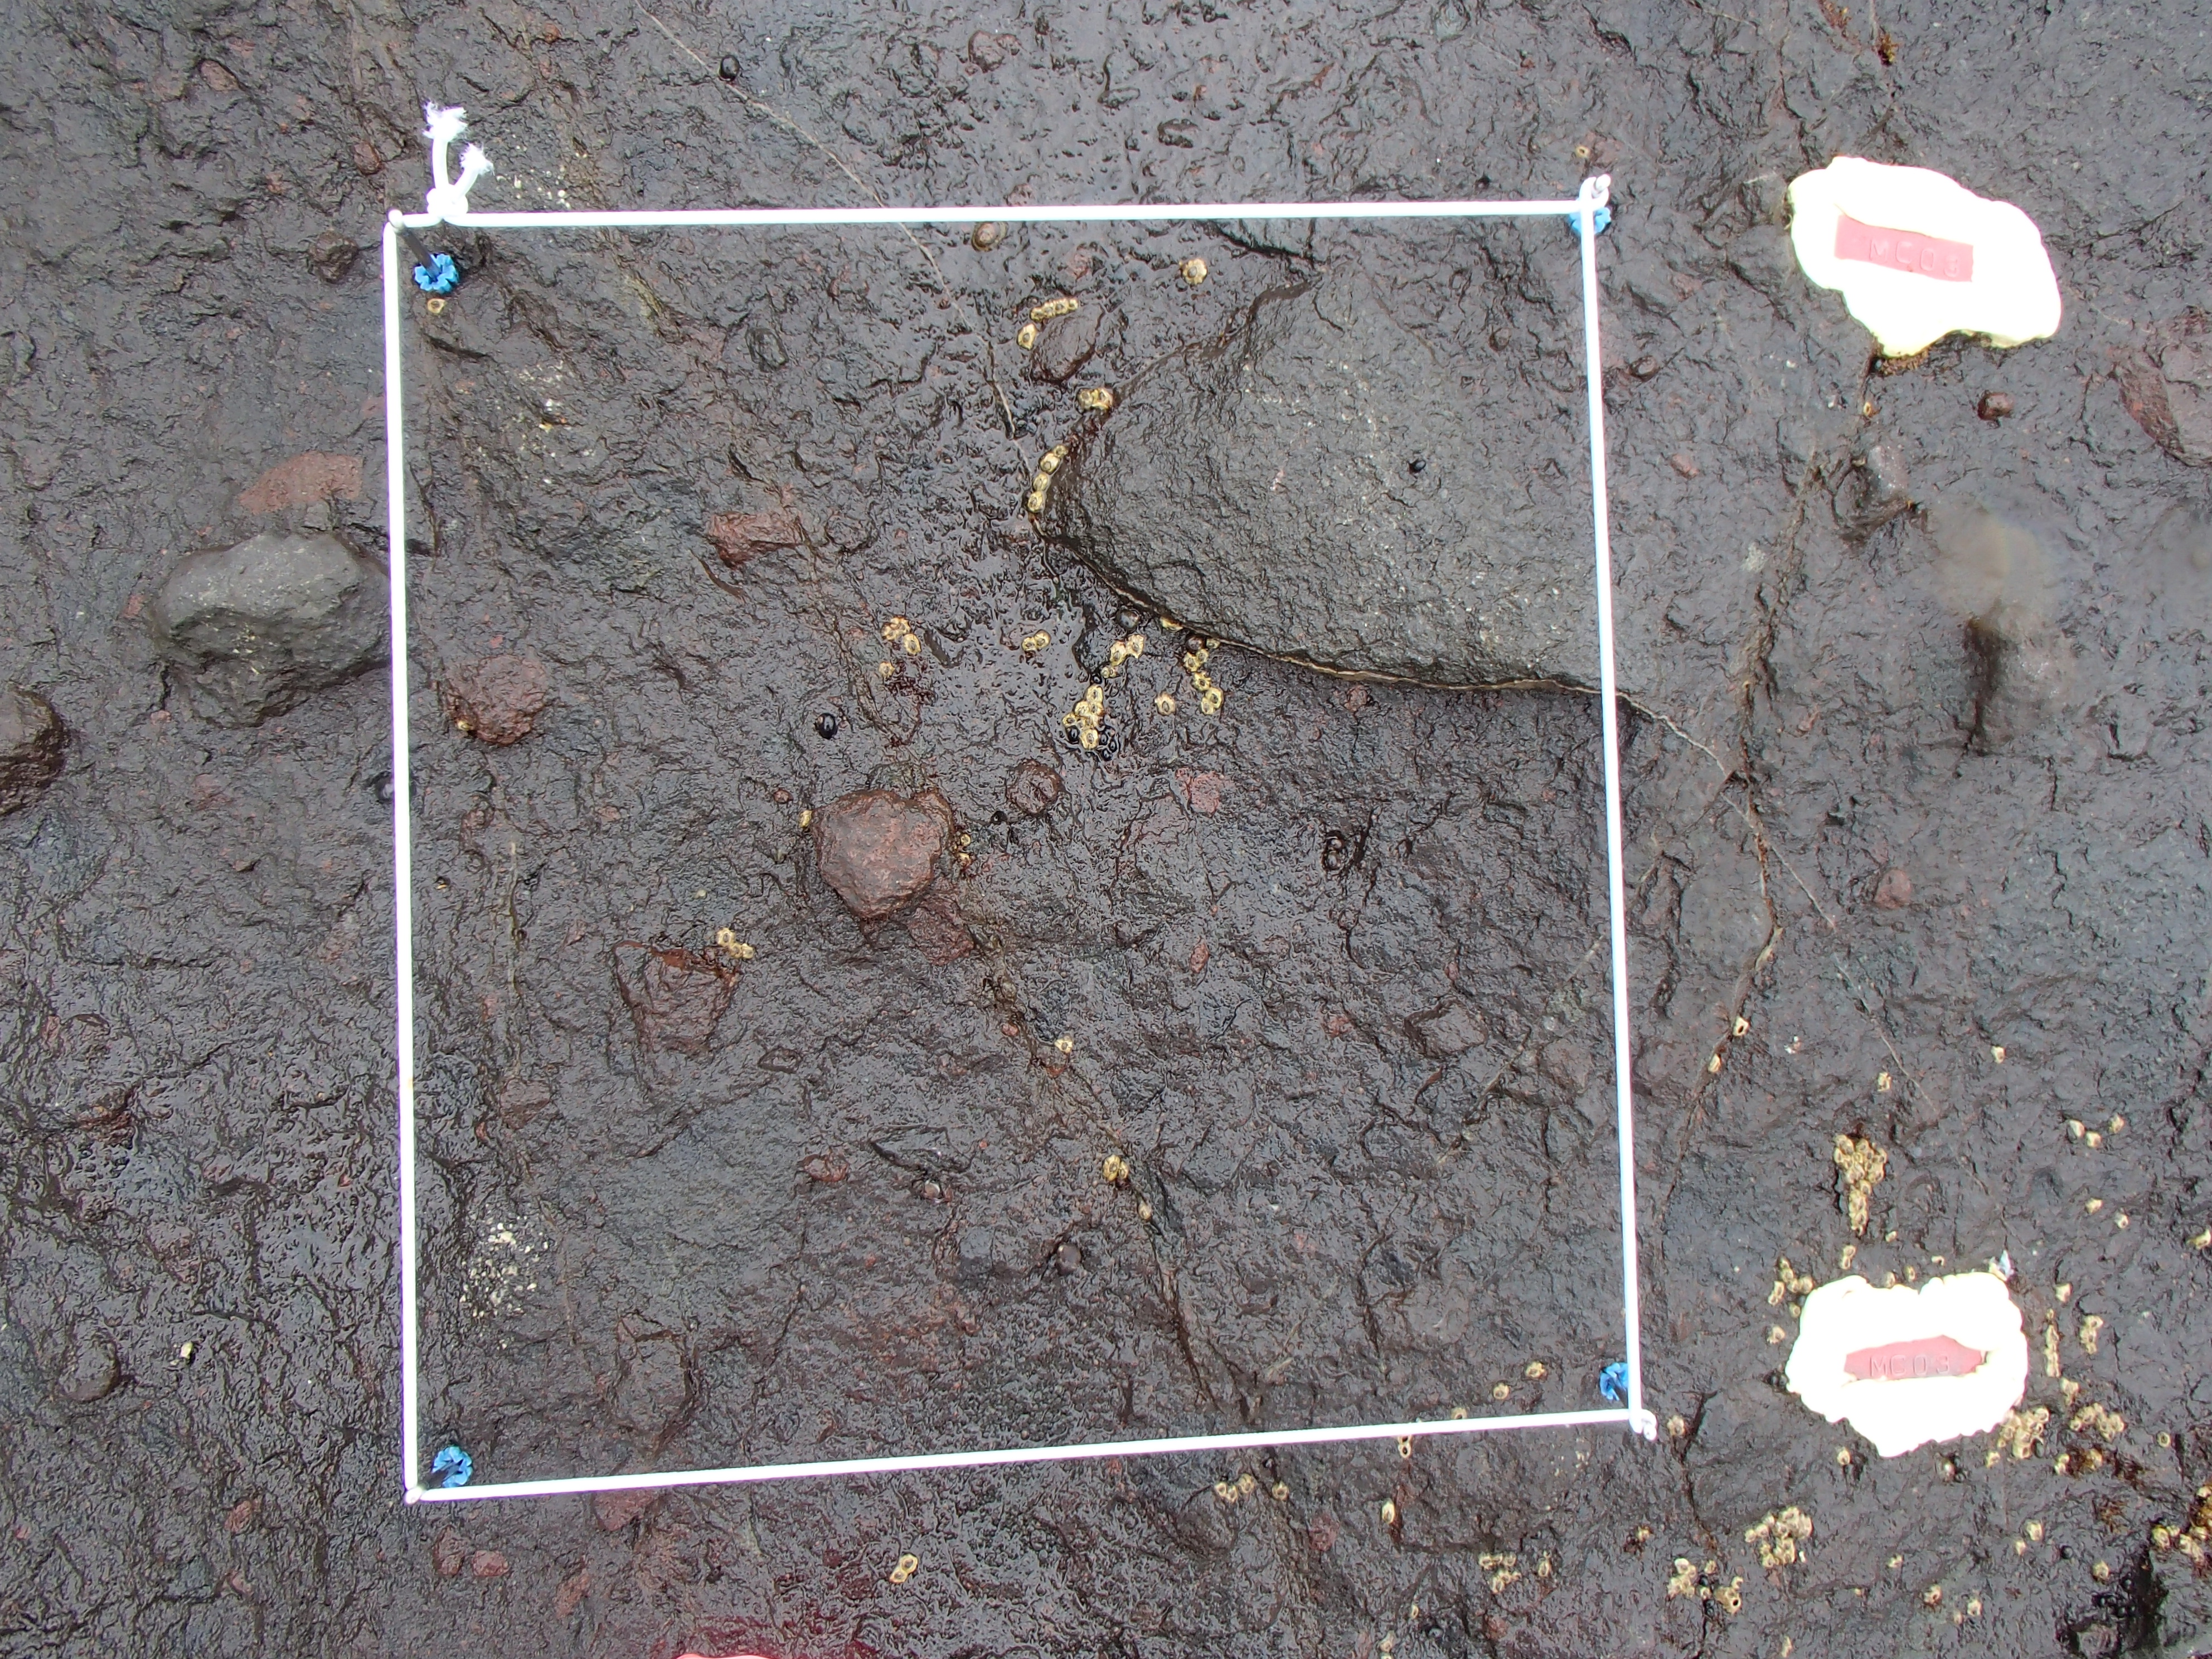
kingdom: Plantae
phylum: Rhodophyta
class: Florideophyceae
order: Gigartinales
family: Endocladiaceae
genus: Gloiopeltis
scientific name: Gloiopeltis furcata
